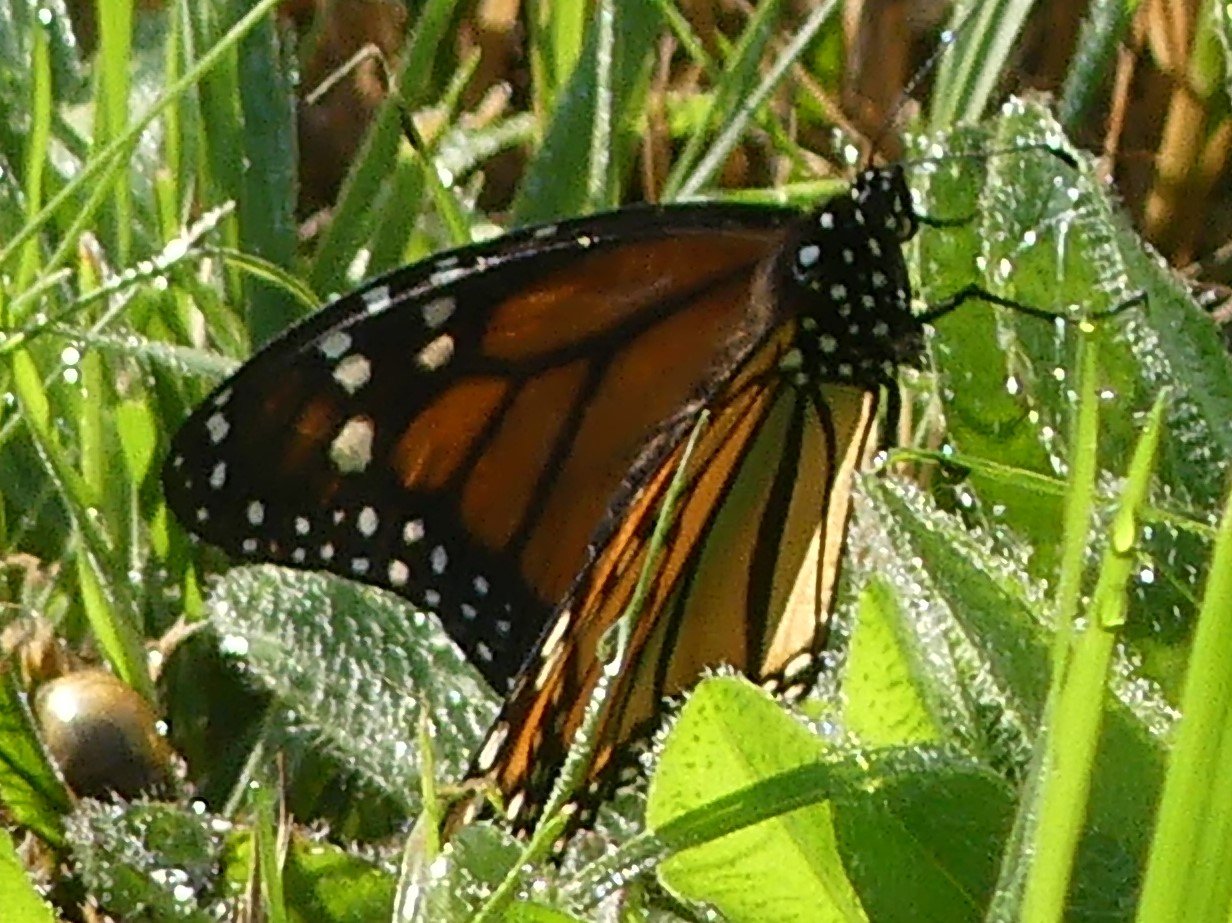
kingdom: Animalia
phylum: Arthropoda
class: Insecta
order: Lepidoptera
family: Nymphalidae
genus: Danaus
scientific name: Danaus plexippus
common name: Monarch
